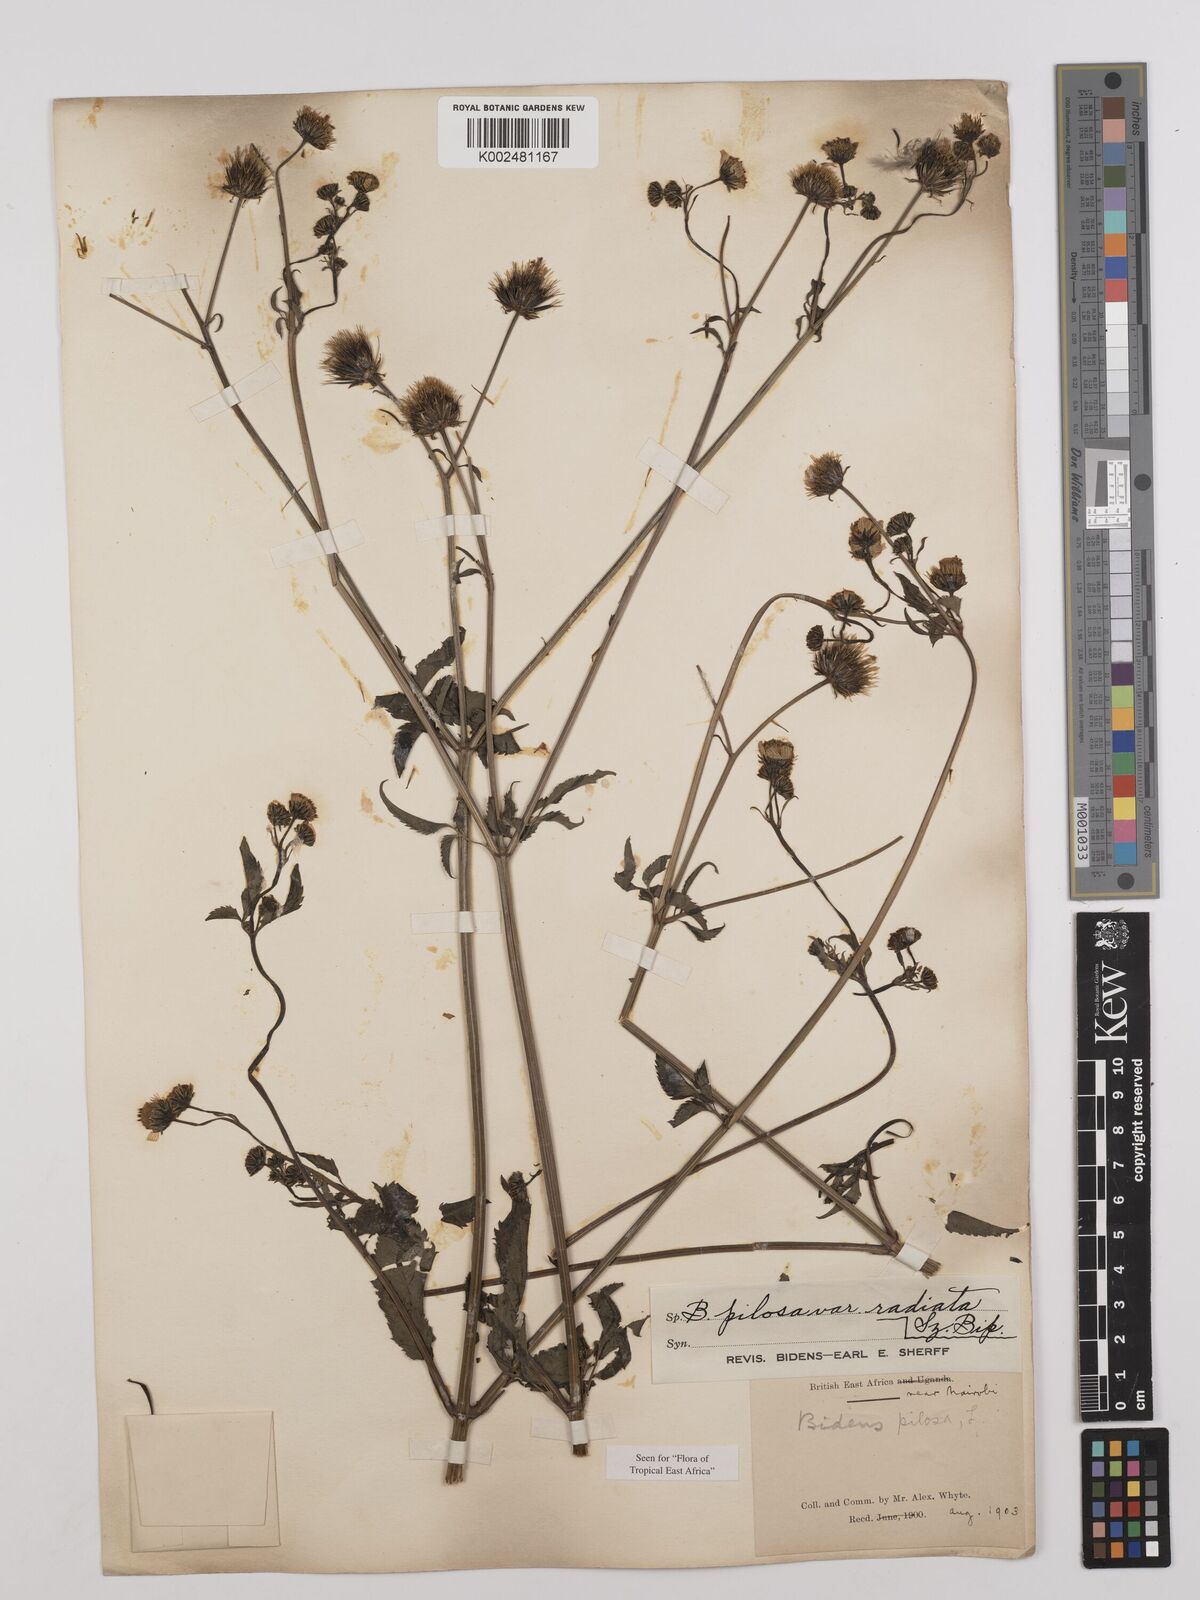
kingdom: Plantae
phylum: Tracheophyta
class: Magnoliopsida
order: Asterales
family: Asteraceae
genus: Bidens
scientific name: Bidens pilosa
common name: Black-jack
